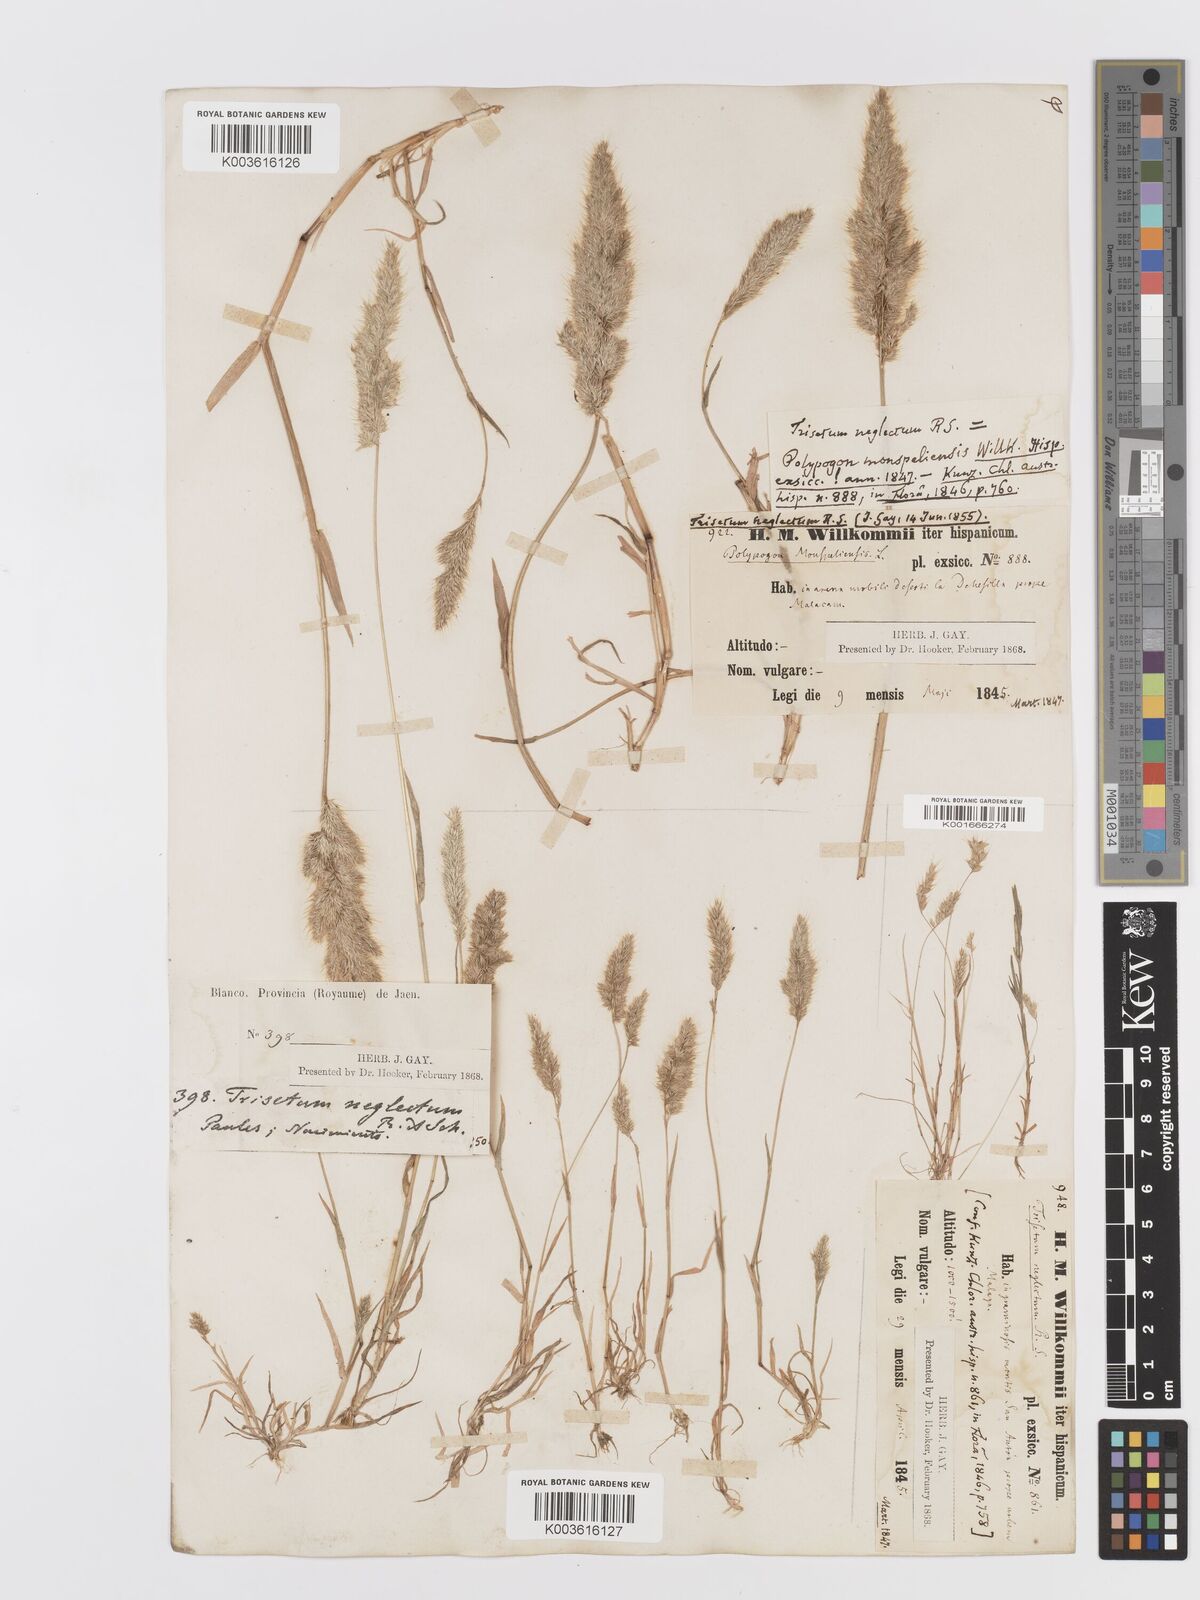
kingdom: Plantae
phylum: Tracheophyta
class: Liliopsida
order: Poales
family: Poaceae
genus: Trisetaria
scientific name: Trisetaria panicea
